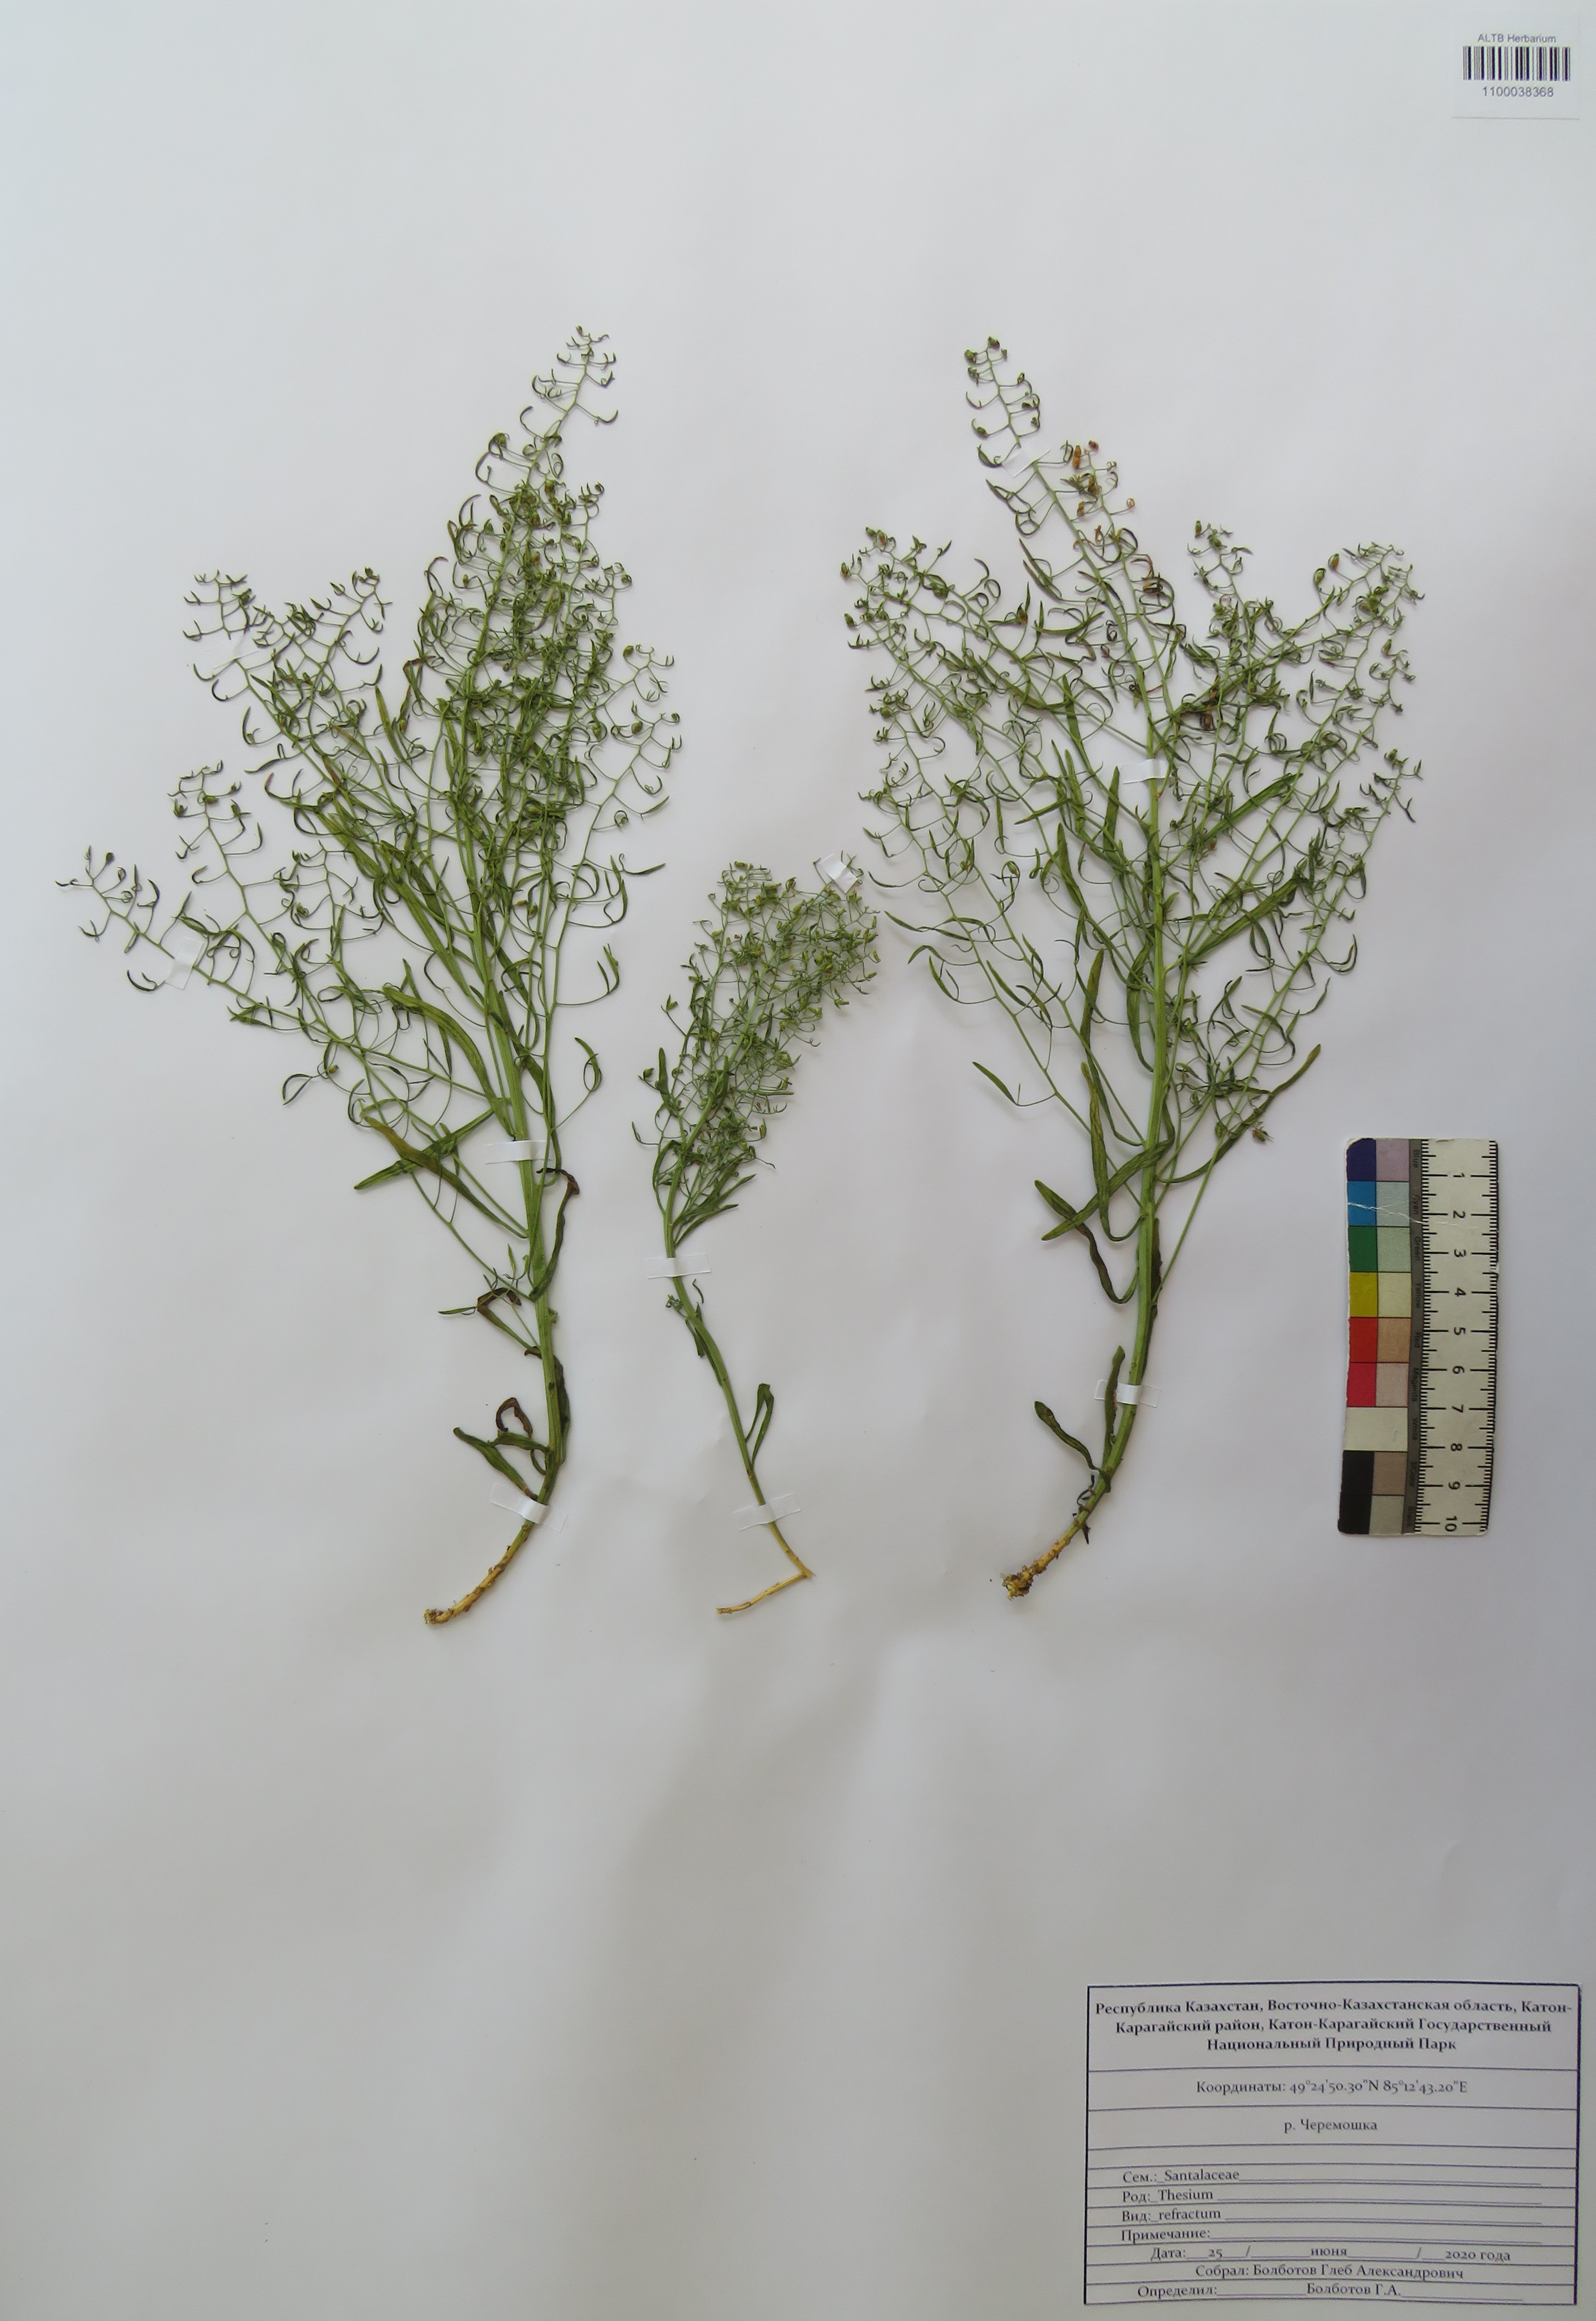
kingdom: Plantae
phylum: Tracheophyta
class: Magnoliopsida
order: Santalales
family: Thesiaceae
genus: Thesium
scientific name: Thesium refractum
